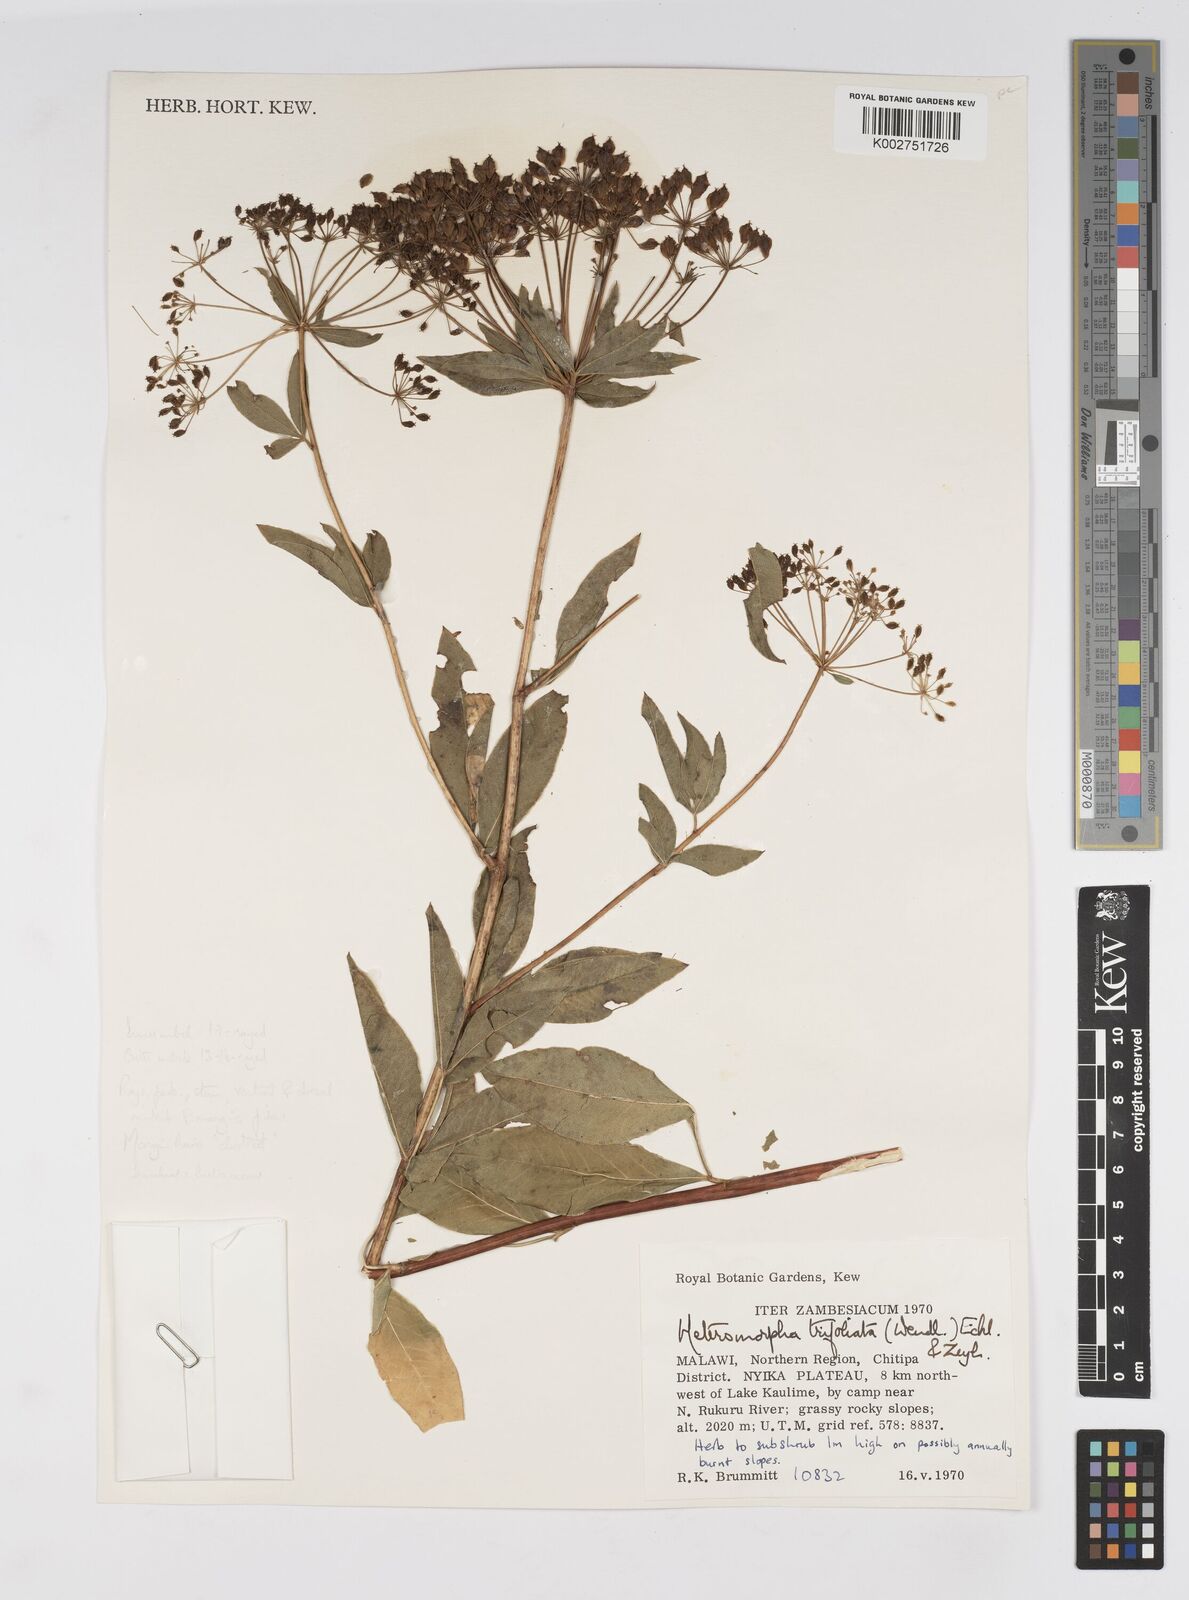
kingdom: Plantae
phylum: Tracheophyta
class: Magnoliopsida
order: Apiales
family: Apiaceae
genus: Heteromorpha
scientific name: Heteromorpha involucrata
